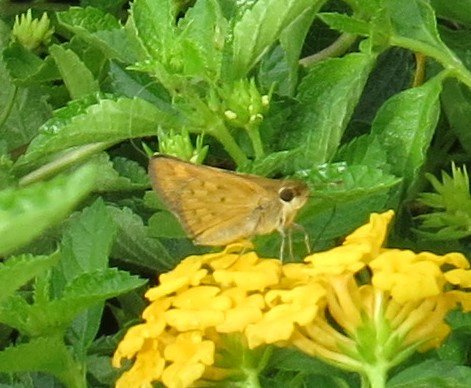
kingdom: Animalia
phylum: Arthropoda
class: Insecta
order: Lepidoptera
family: Hesperiidae
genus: Hylephila
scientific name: Hylephila phyleus
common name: Fiery Skipper
